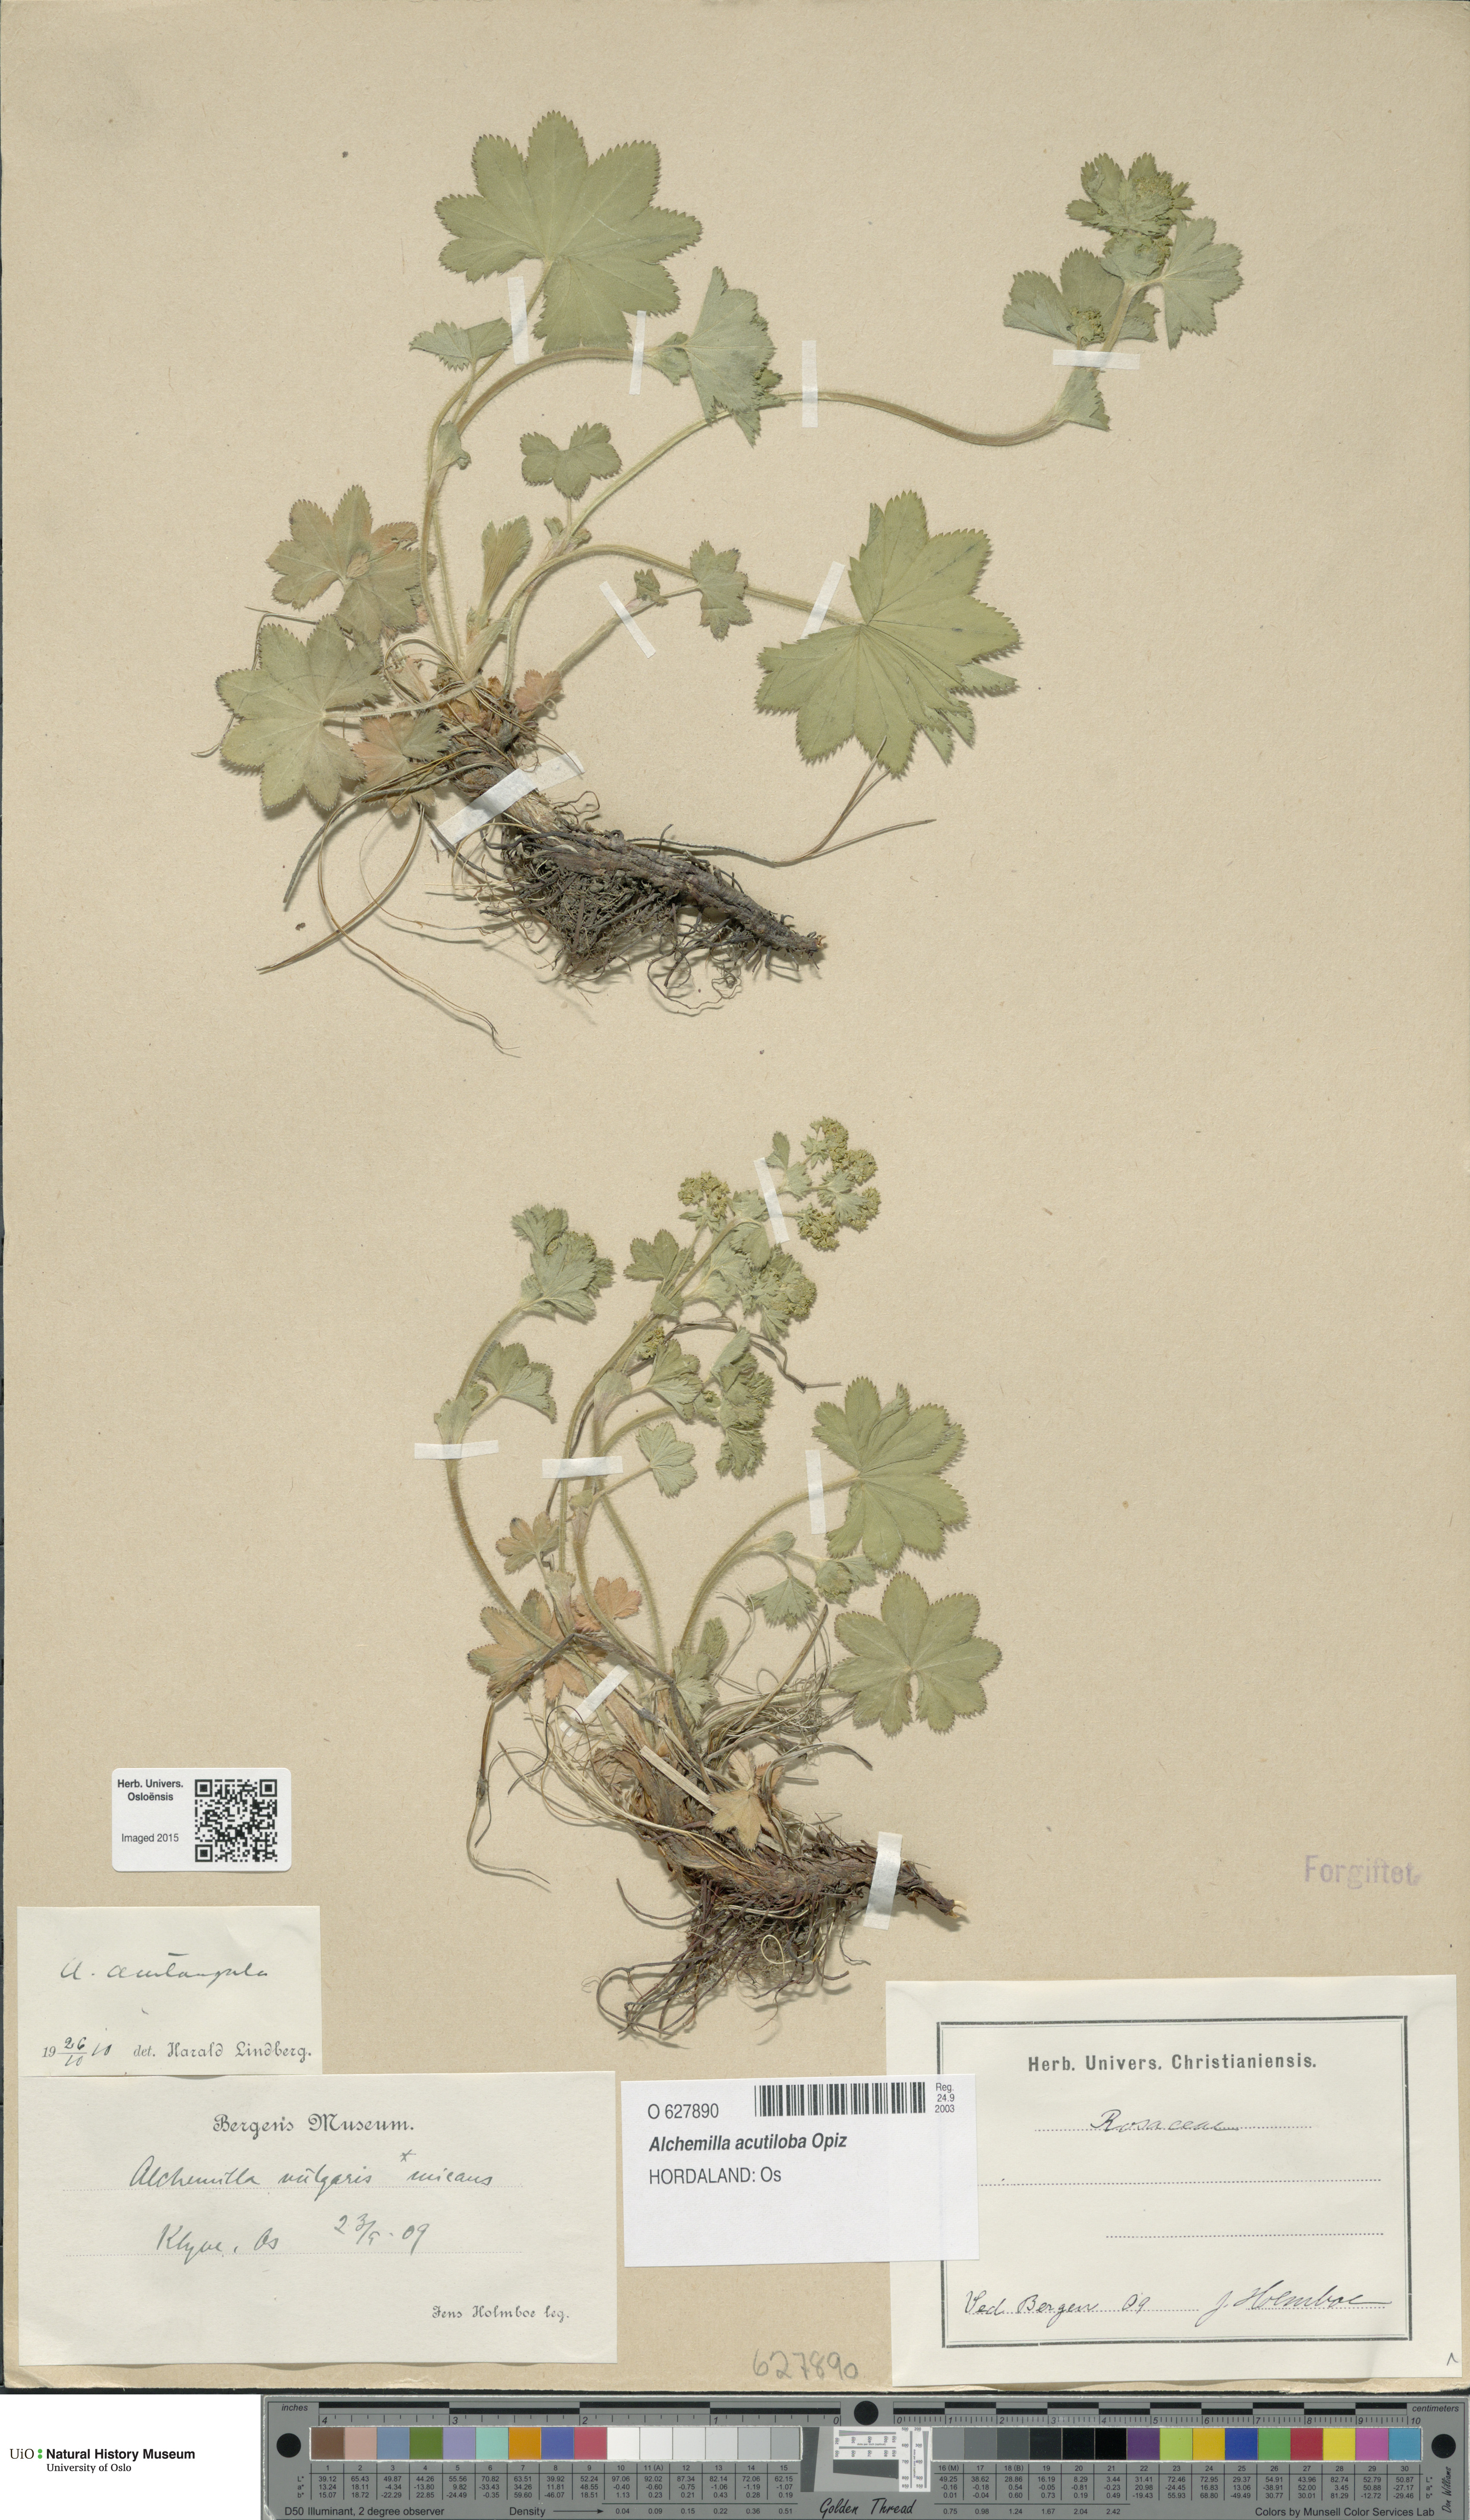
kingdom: Plantae
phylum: Tracheophyta
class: Magnoliopsida
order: Rosales
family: Rosaceae
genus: Alchemilla
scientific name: Alchemilla vulgaris
